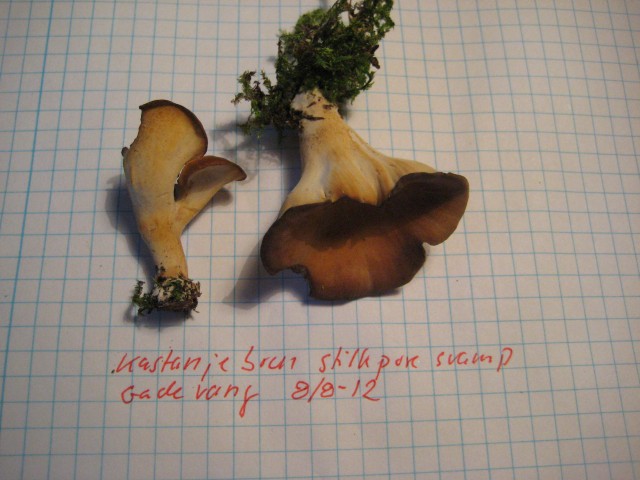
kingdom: Fungi
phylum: Basidiomycota
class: Agaricomycetes
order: Polyporales
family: Polyporaceae
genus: Polyporus
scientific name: Polyporus
